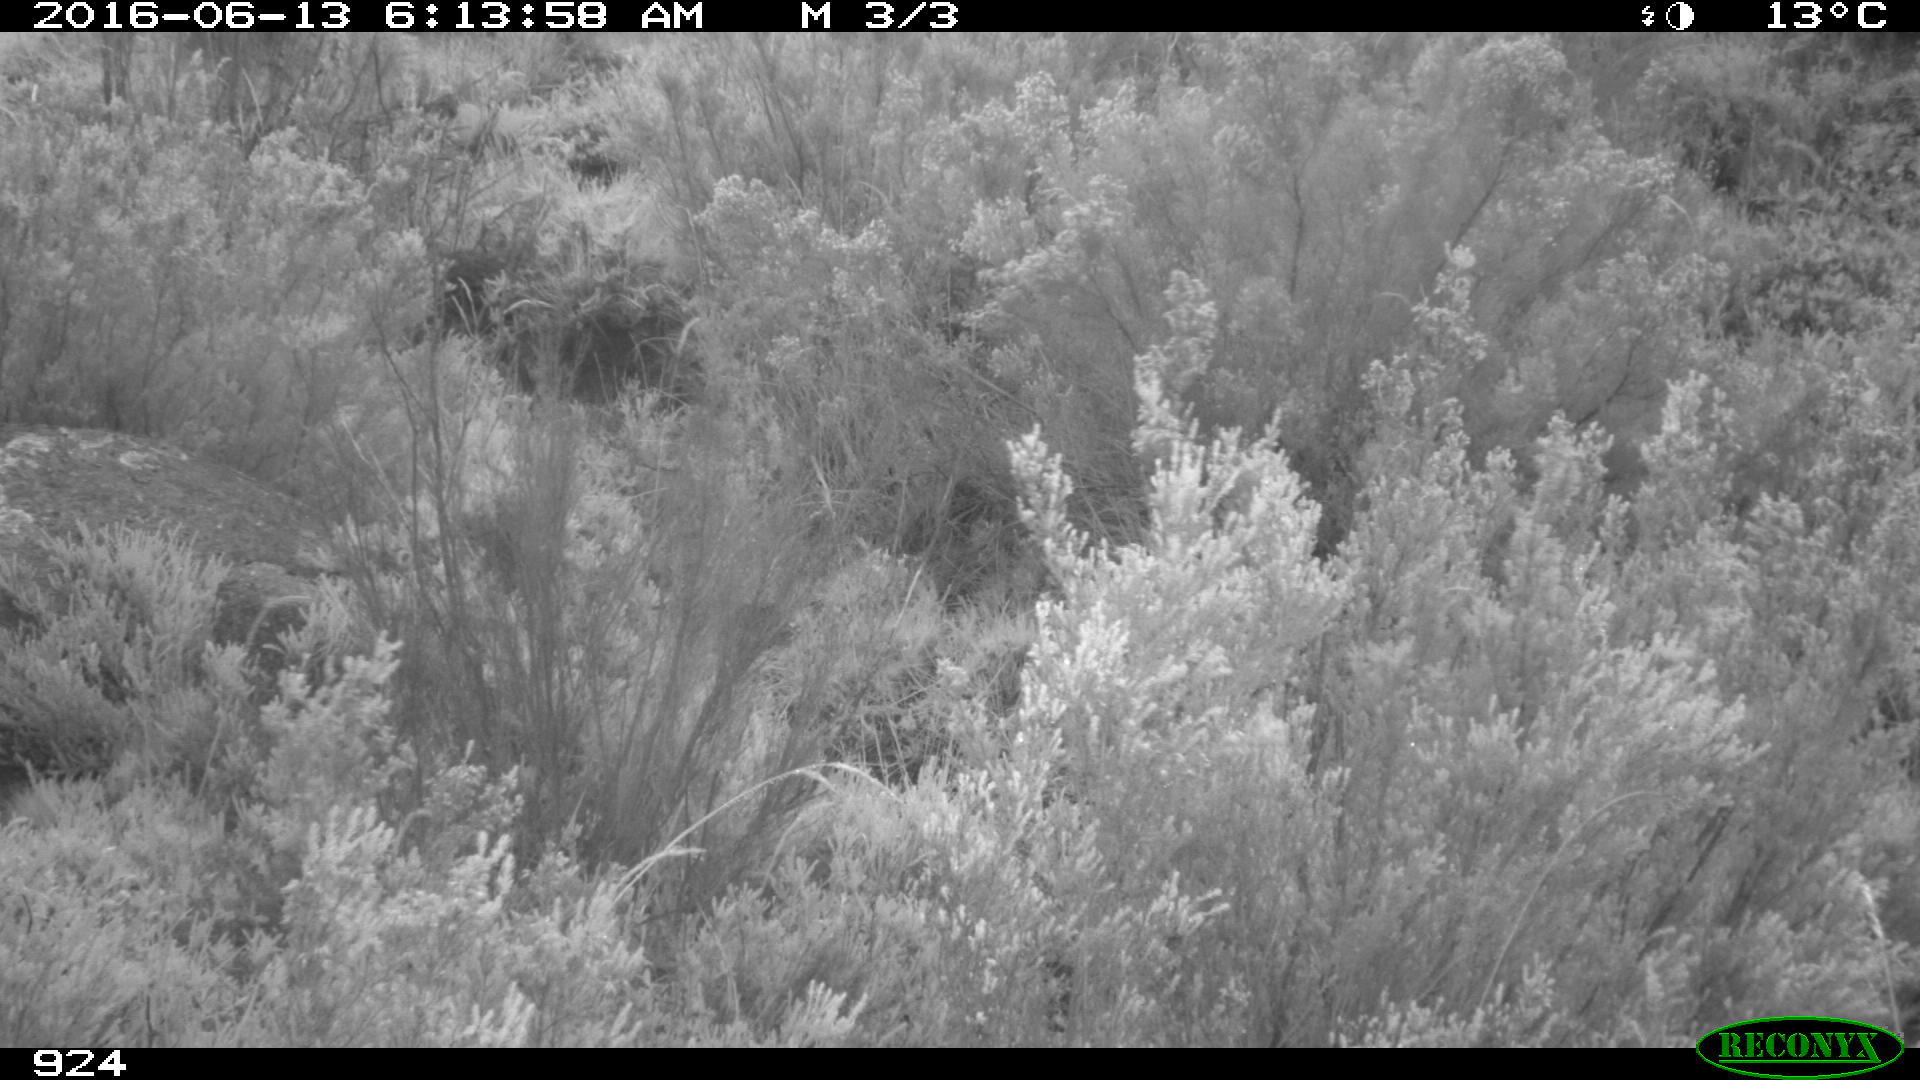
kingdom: Animalia
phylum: Chordata
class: Mammalia
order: Artiodactyla
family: Suidae
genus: Sus
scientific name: Sus scrofa
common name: Wild boar
